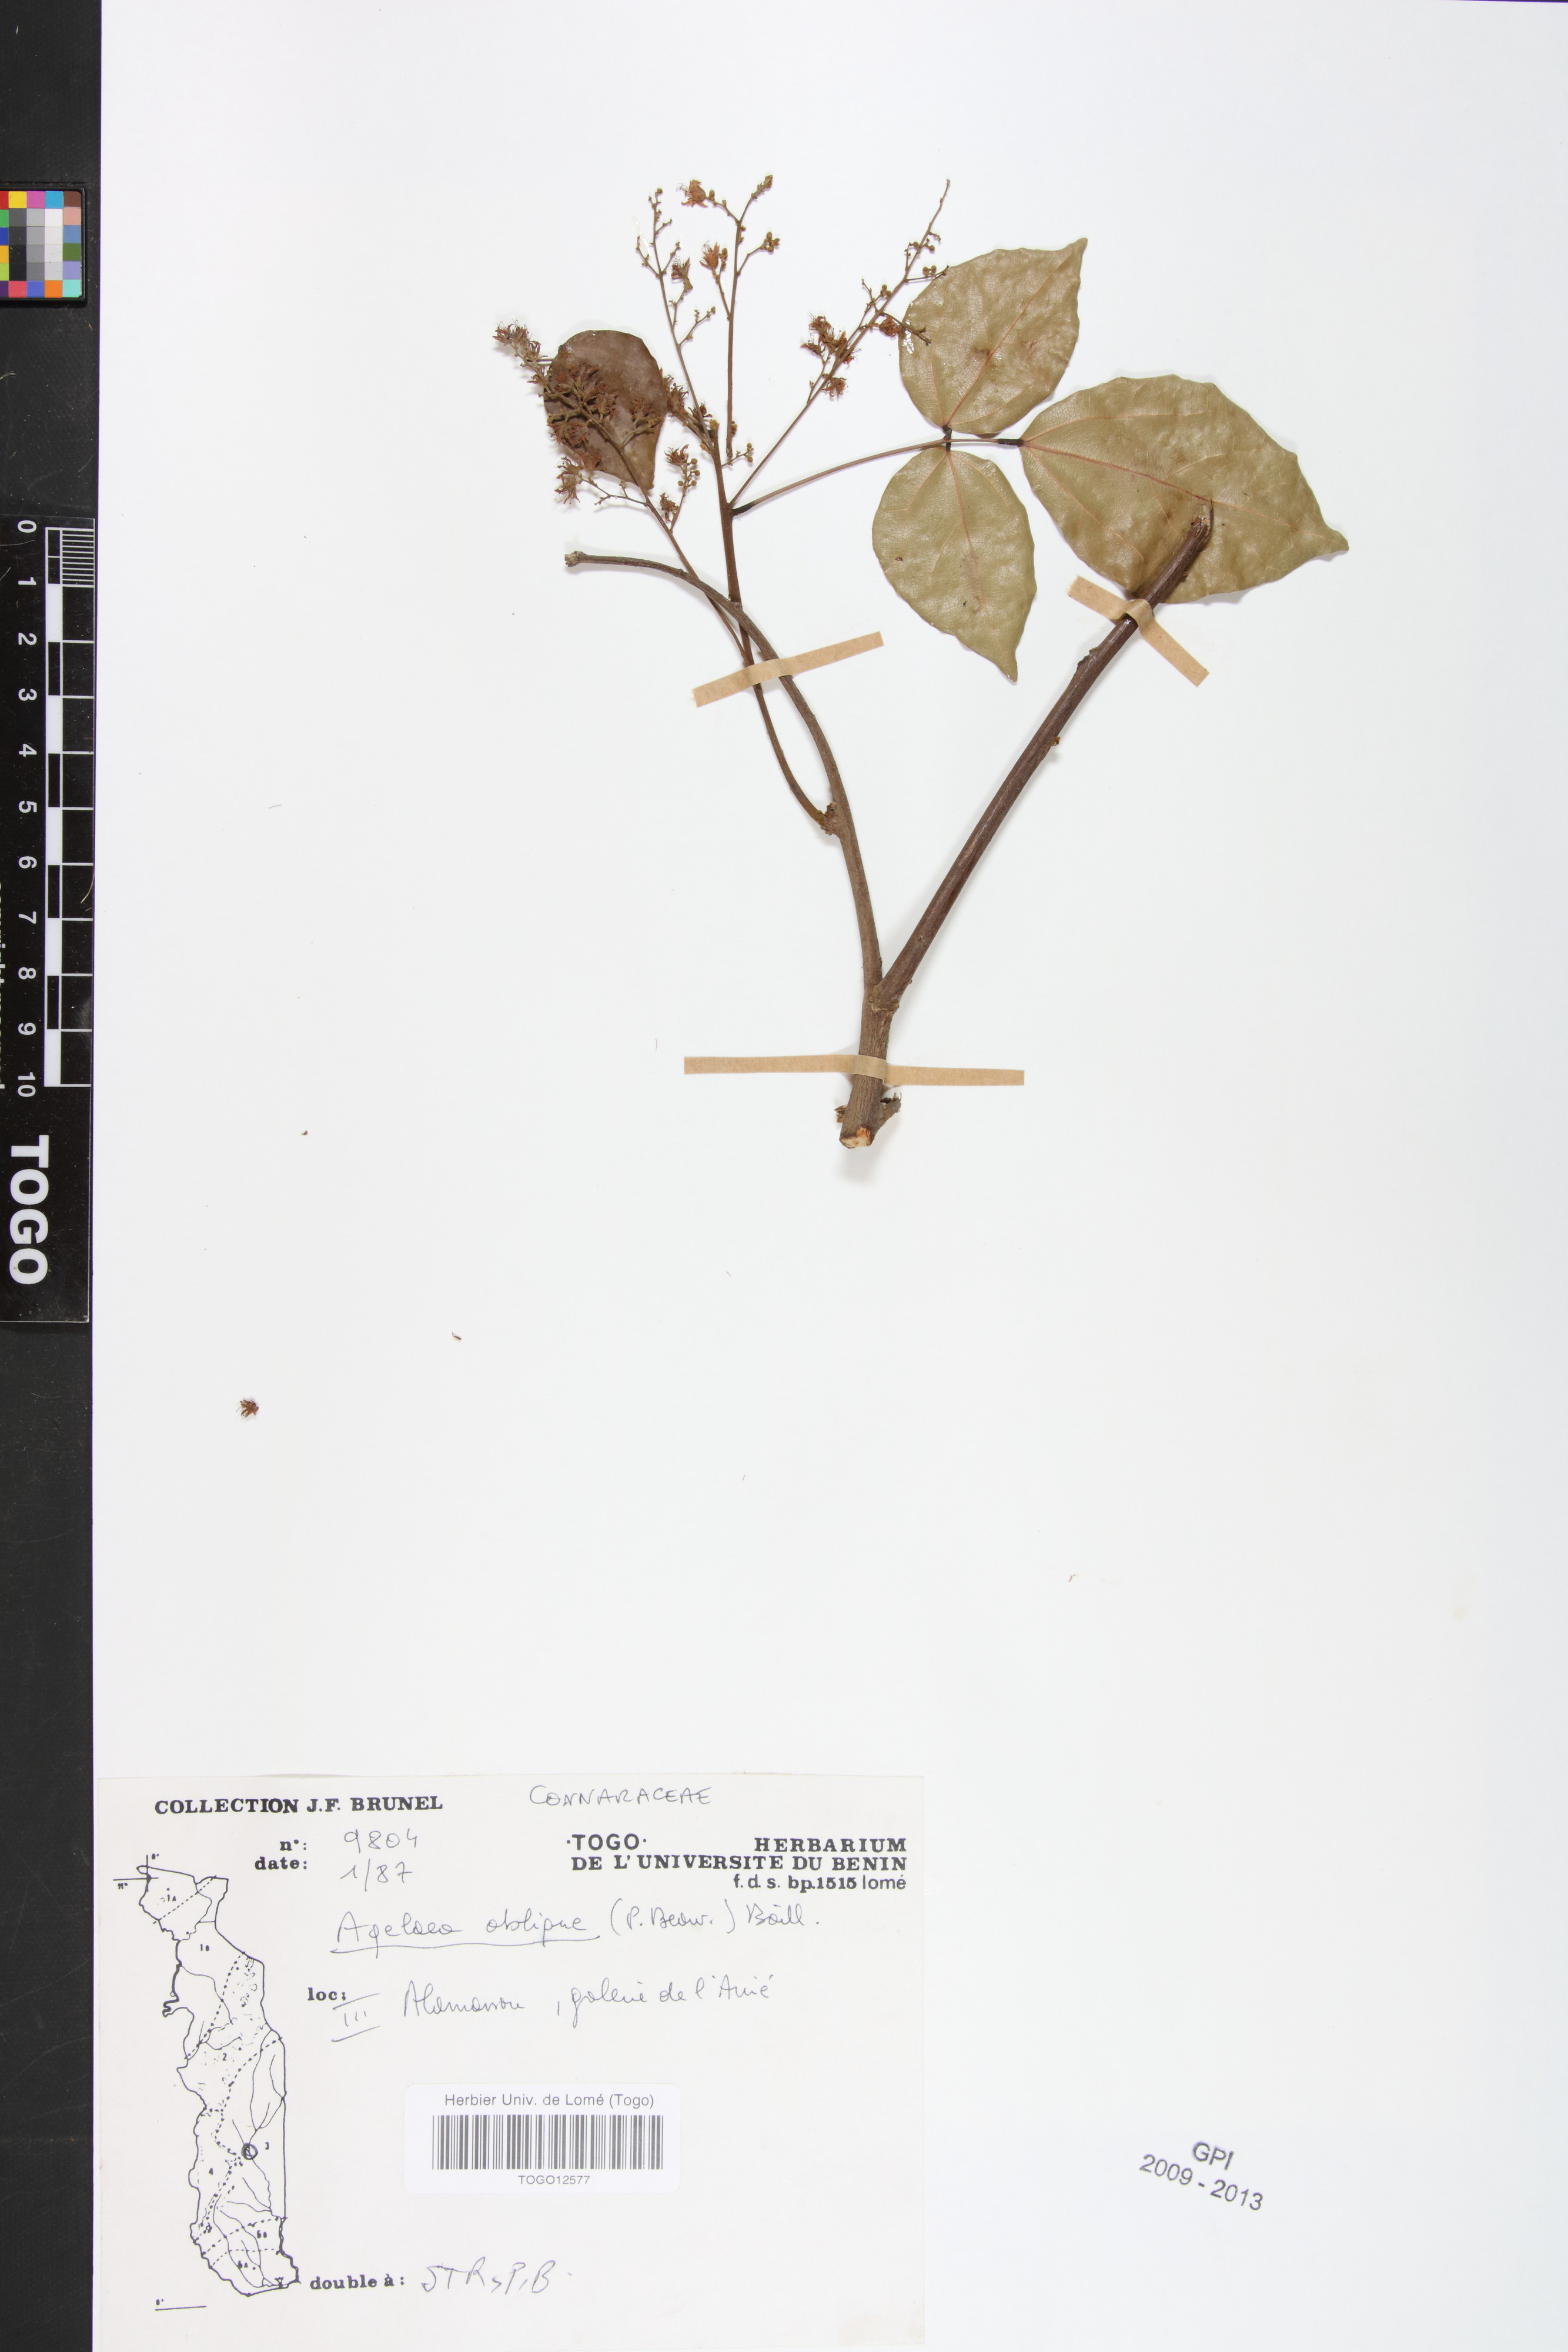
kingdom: Plantae
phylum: Tracheophyta
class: Magnoliopsida
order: Oxalidales
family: Connaraceae
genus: Agelaea
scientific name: Agelaea pentagyna
